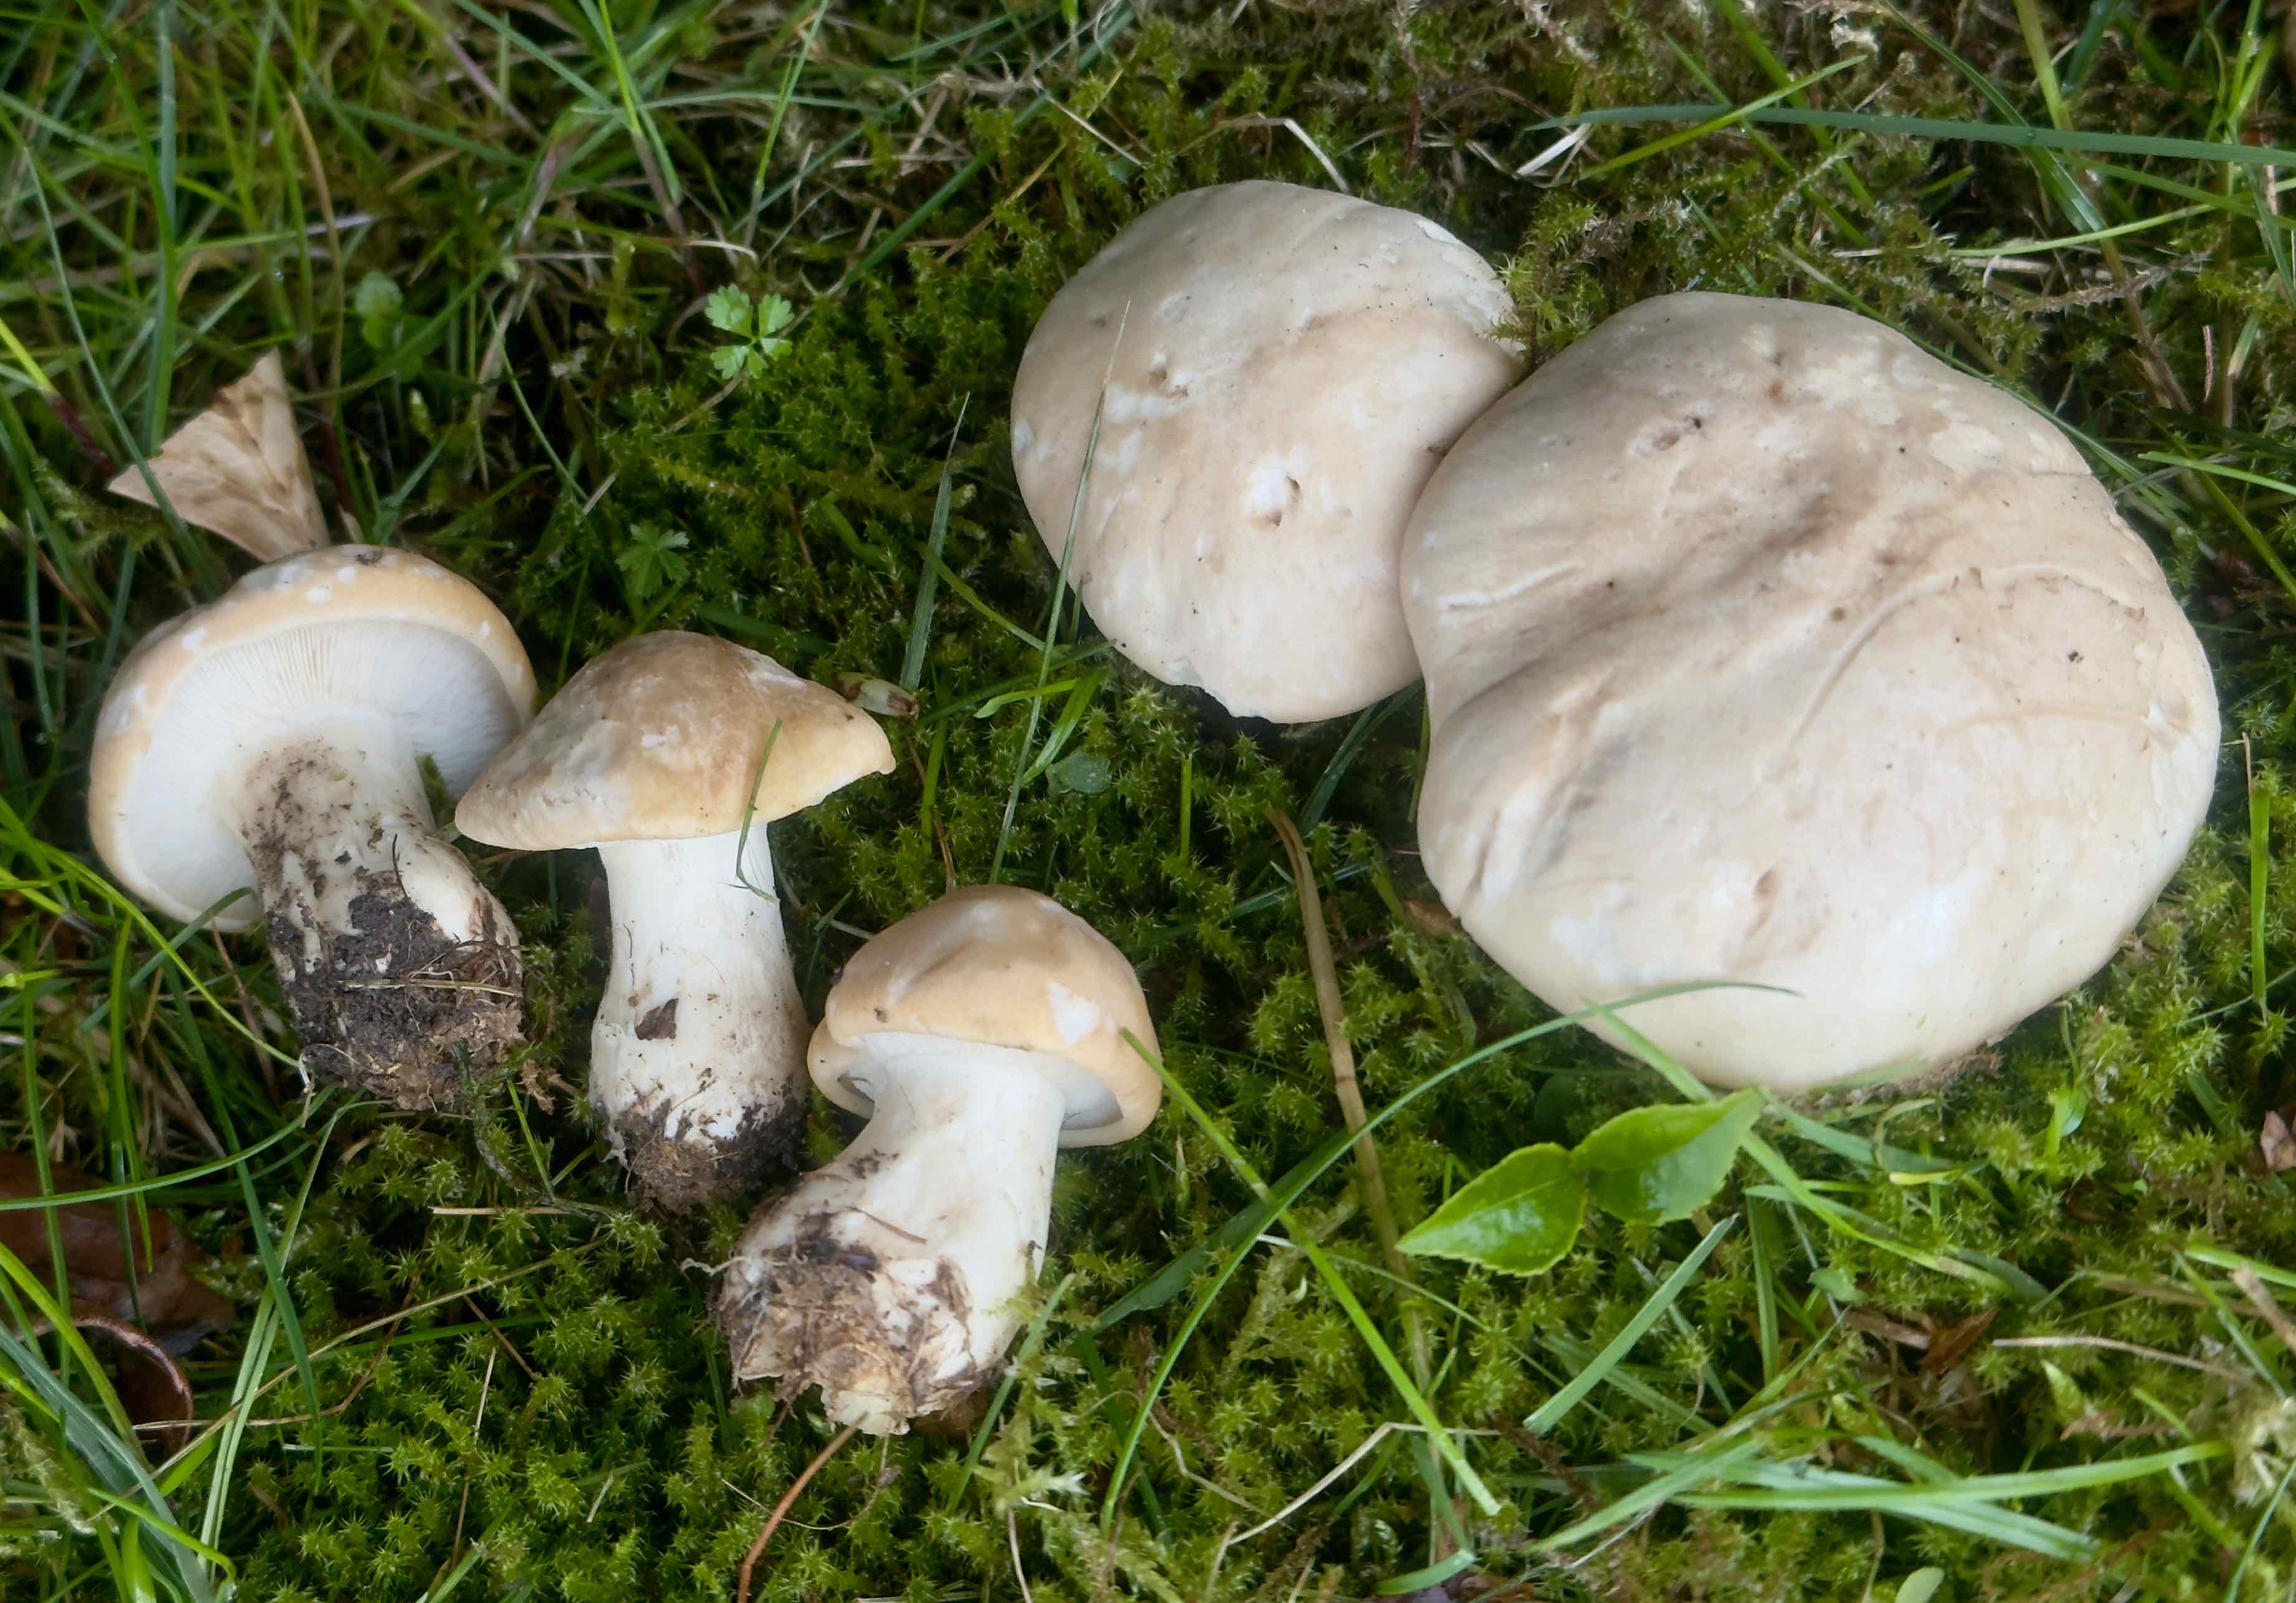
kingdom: Fungi
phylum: Basidiomycota
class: Agaricomycetes
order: Agaricales
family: Lyophyllaceae
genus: Calocybe
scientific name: Calocybe gambosa
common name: vårmusseron
